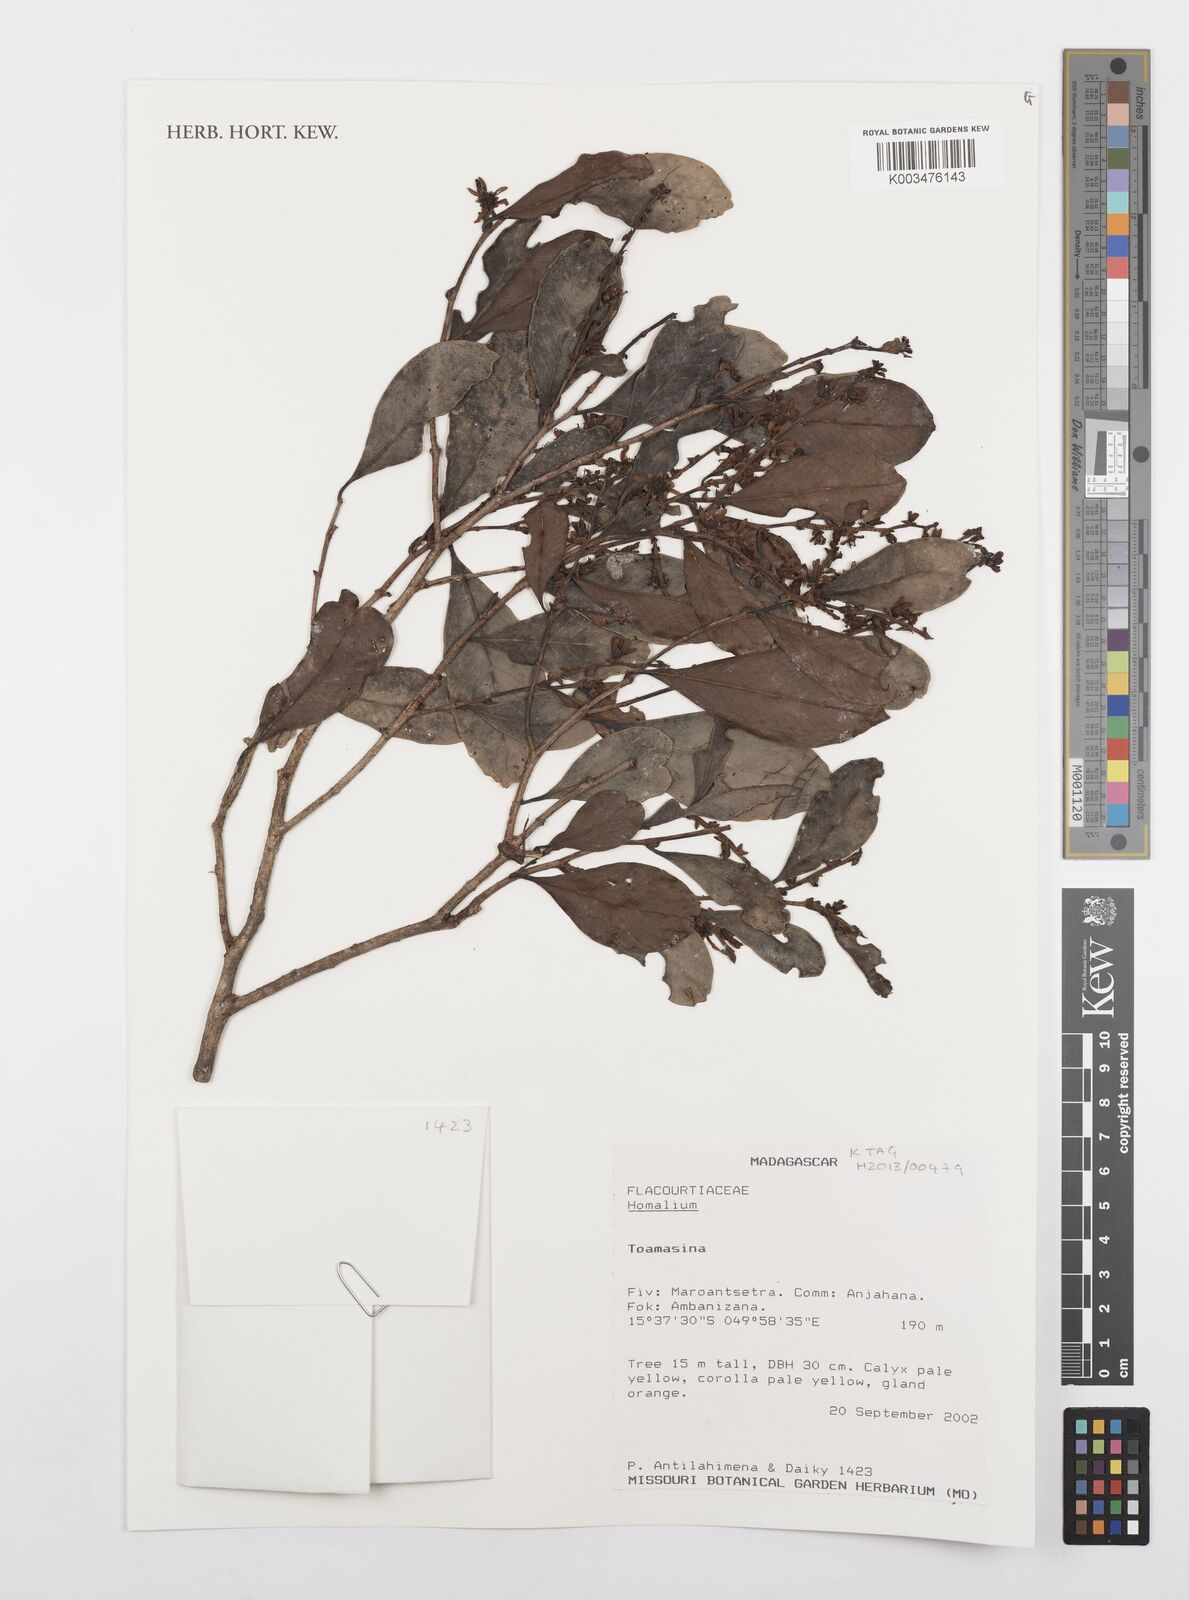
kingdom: Plantae
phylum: Tracheophyta
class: Magnoliopsida
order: Malpighiales
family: Salicaceae
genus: Homalium
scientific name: Homalium
